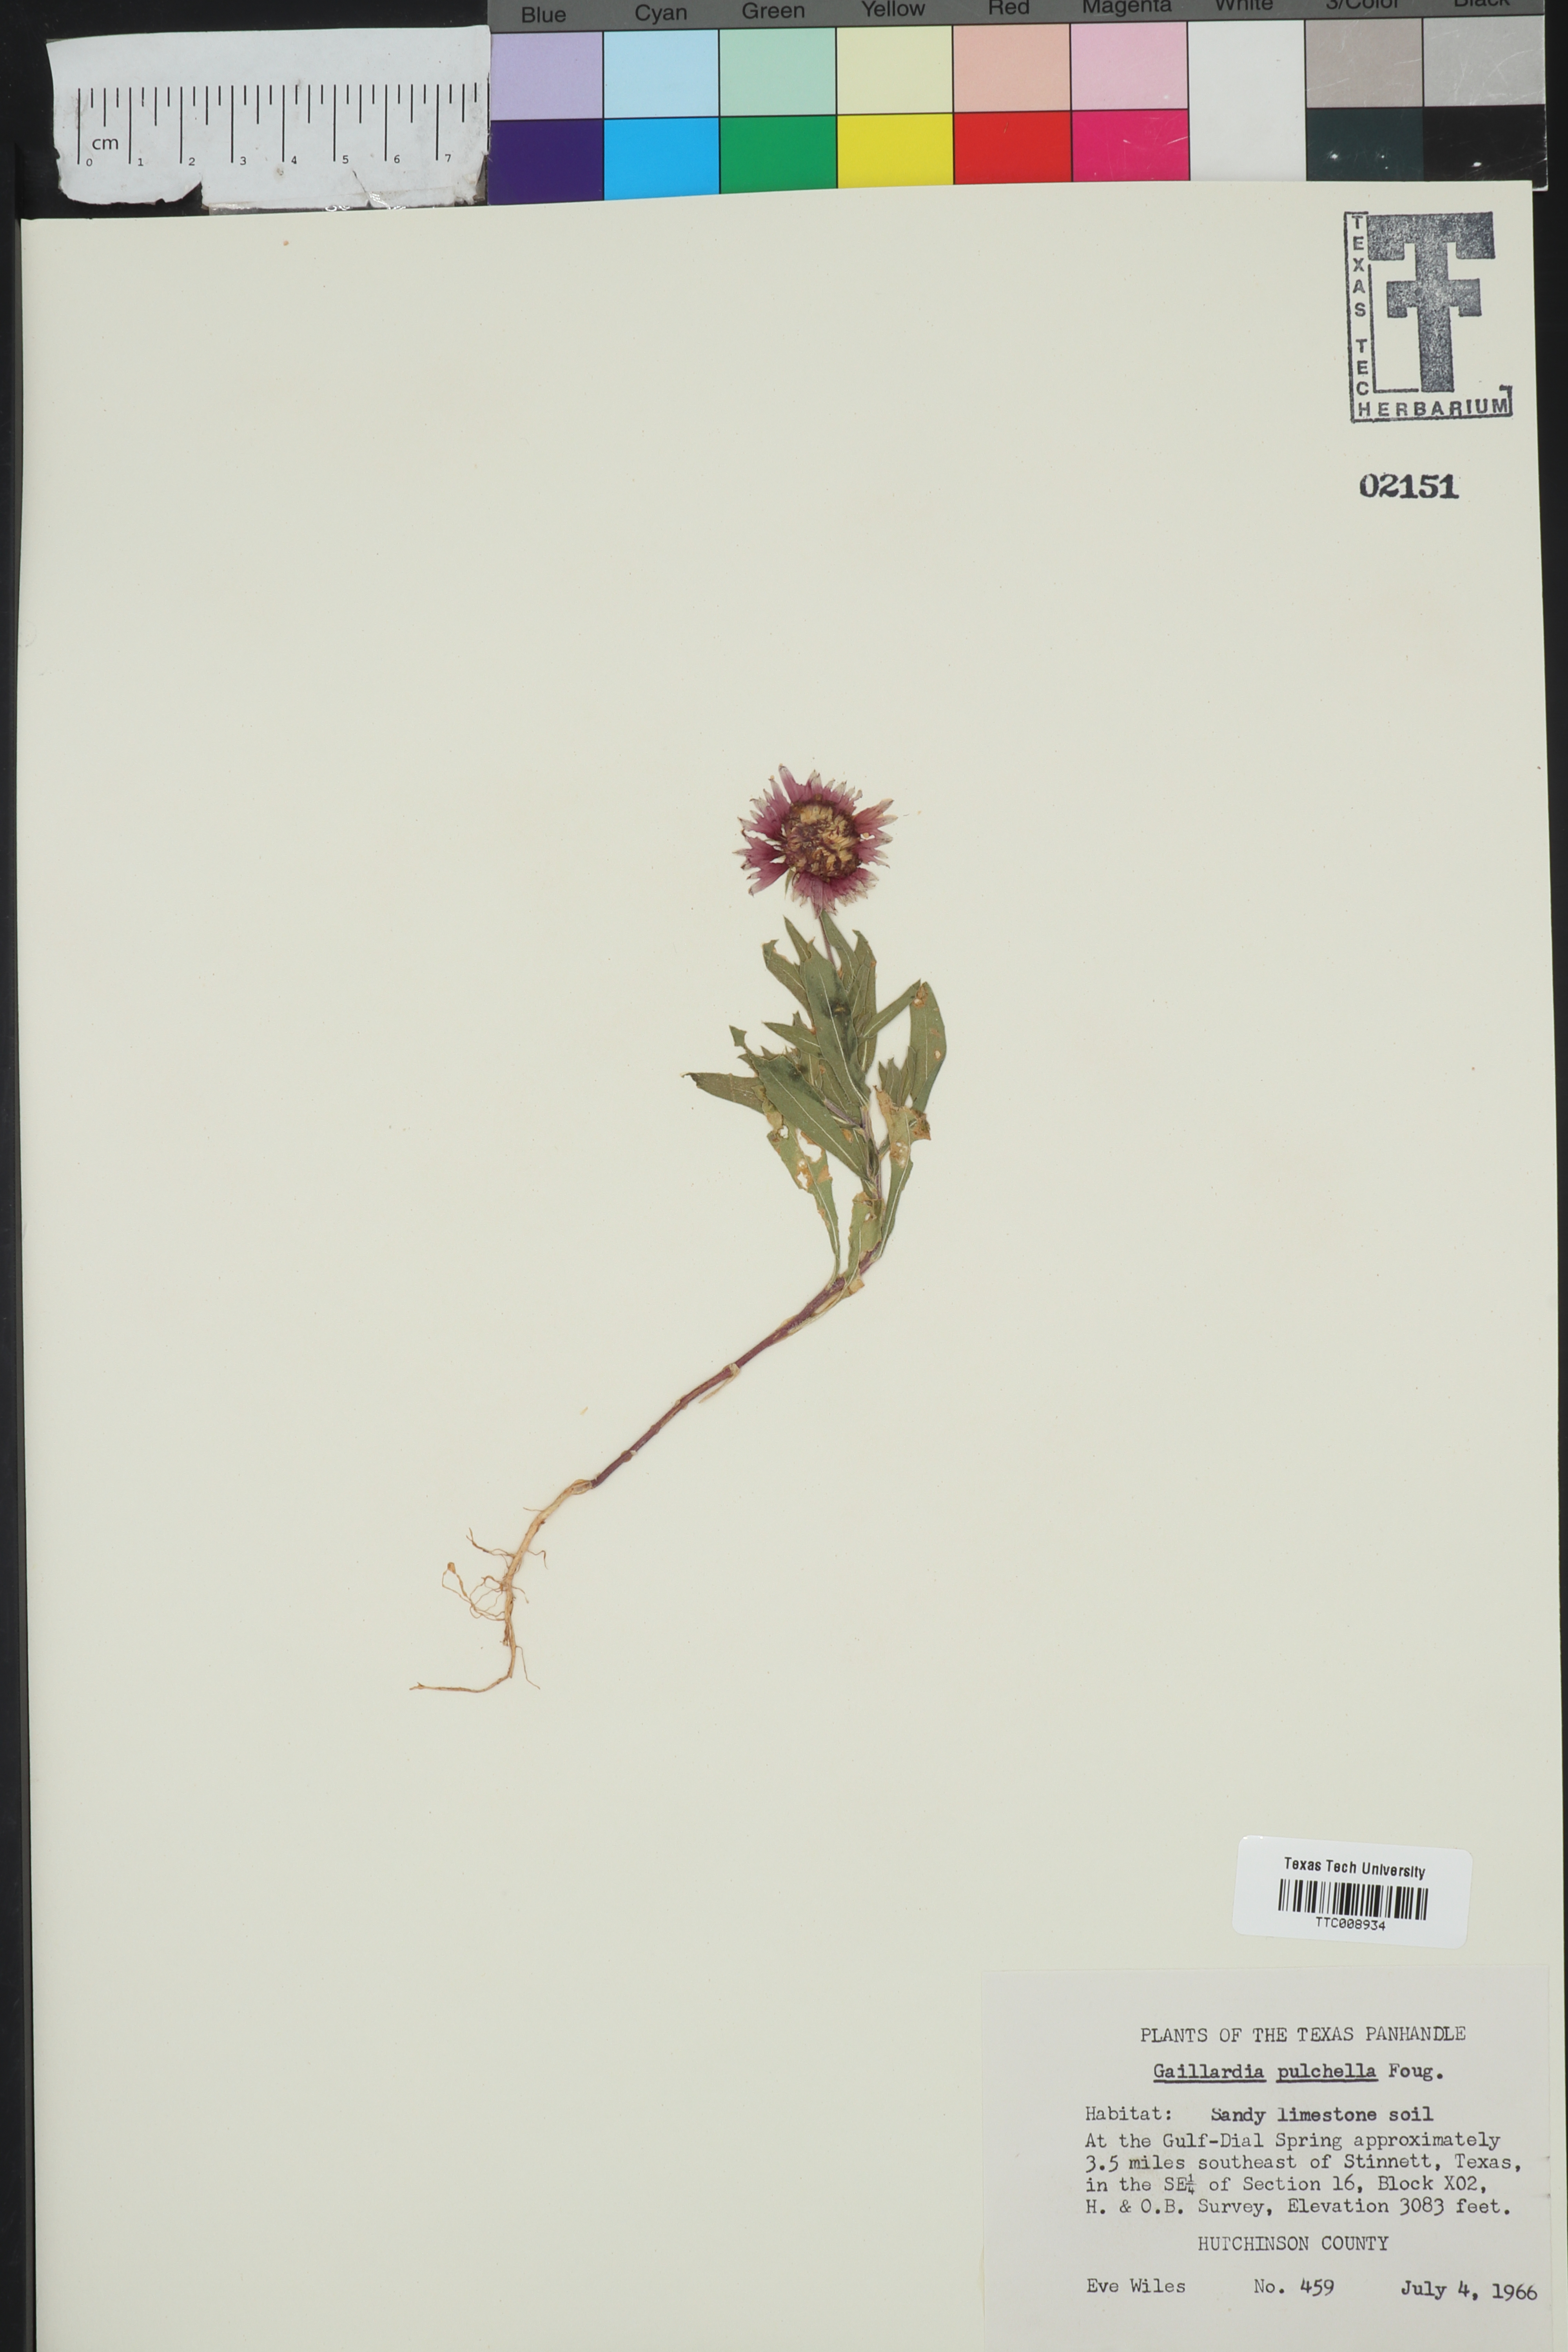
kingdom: Plantae
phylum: Tracheophyta
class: Magnoliopsida
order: Asterales
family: Asteraceae
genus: Gaillardia
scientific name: Gaillardia pulchella
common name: Firewheel
